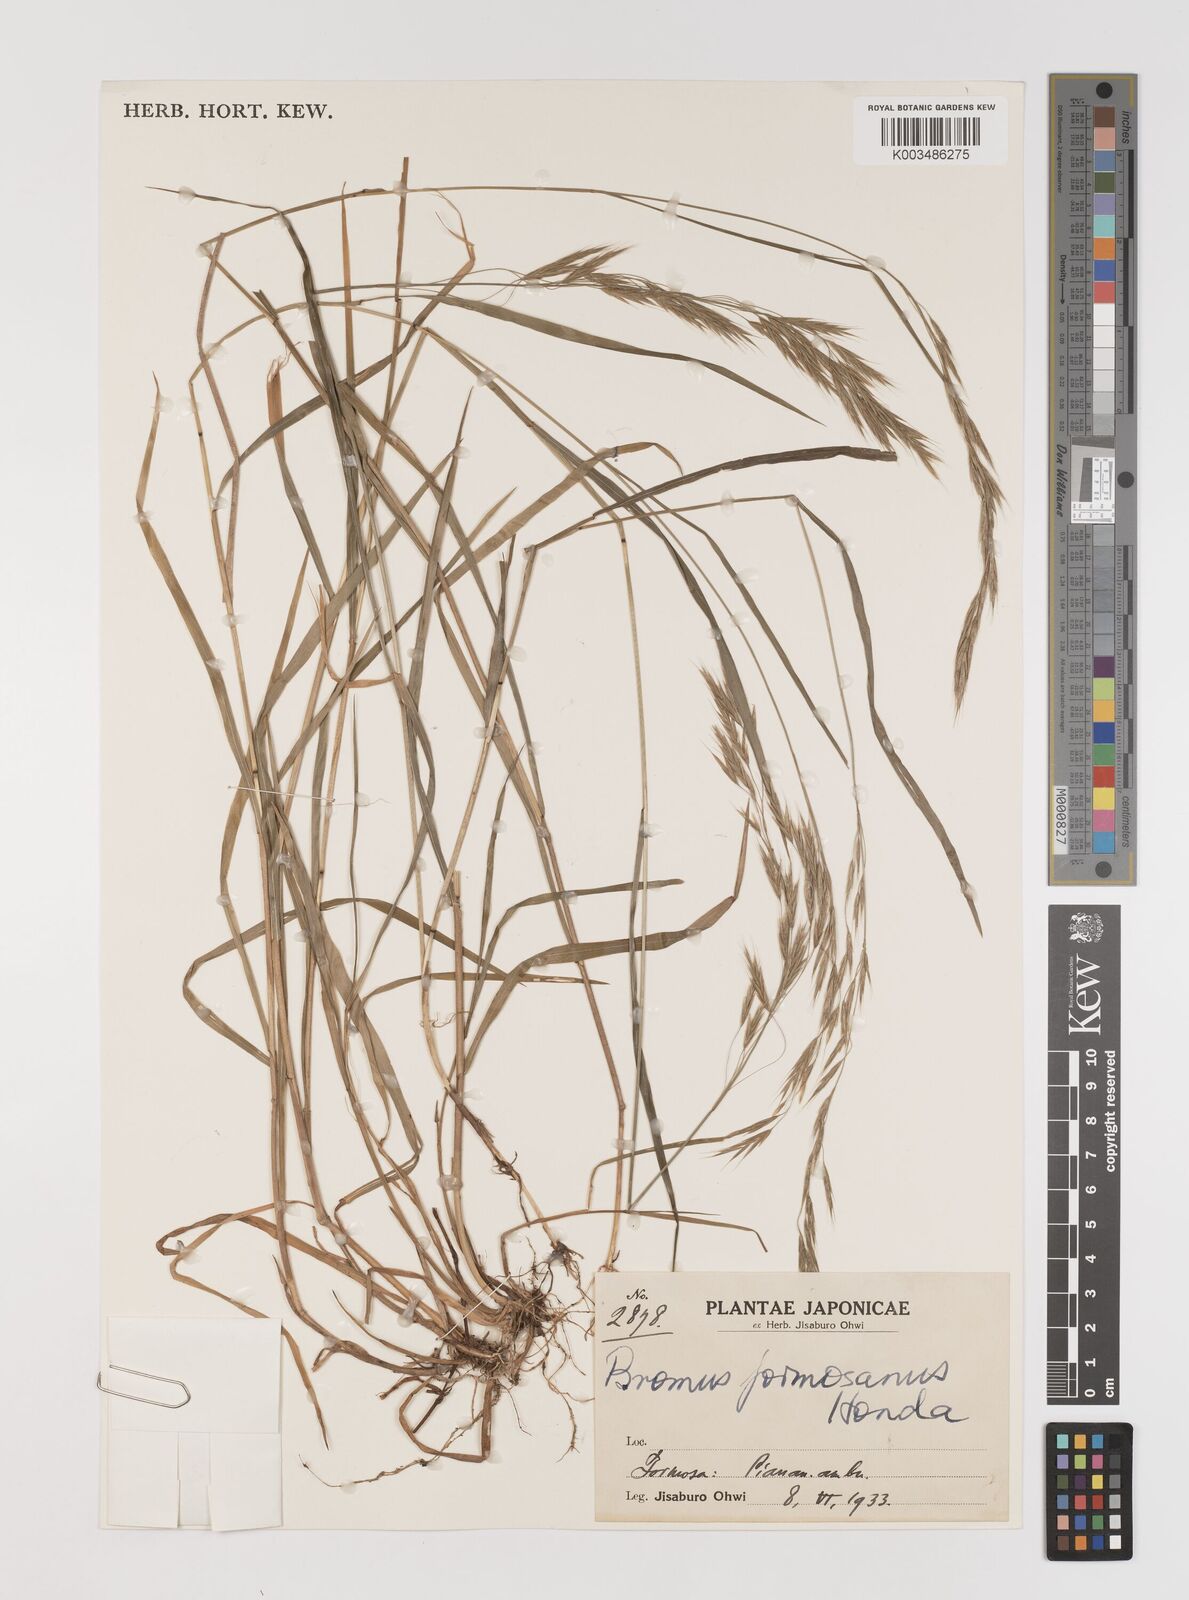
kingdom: Plantae
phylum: Tracheophyta
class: Liliopsida
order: Poales
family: Poaceae
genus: Bromus
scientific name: Bromus formosanus
